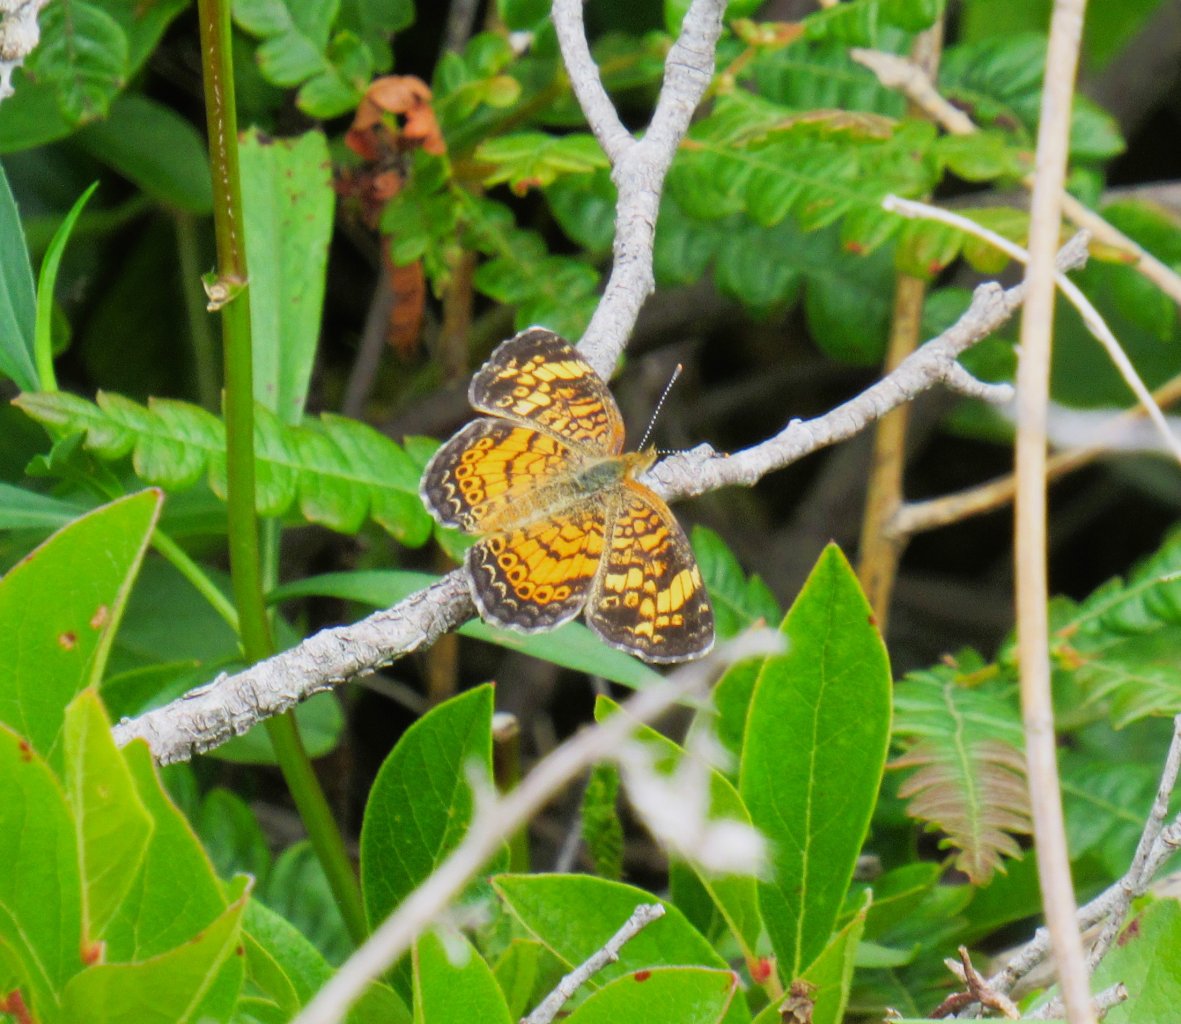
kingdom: Animalia
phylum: Arthropoda
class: Insecta
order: Lepidoptera
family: Nymphalidae
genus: Phyciodes
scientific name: Phyciodes tharos
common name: Pearl Crescent
